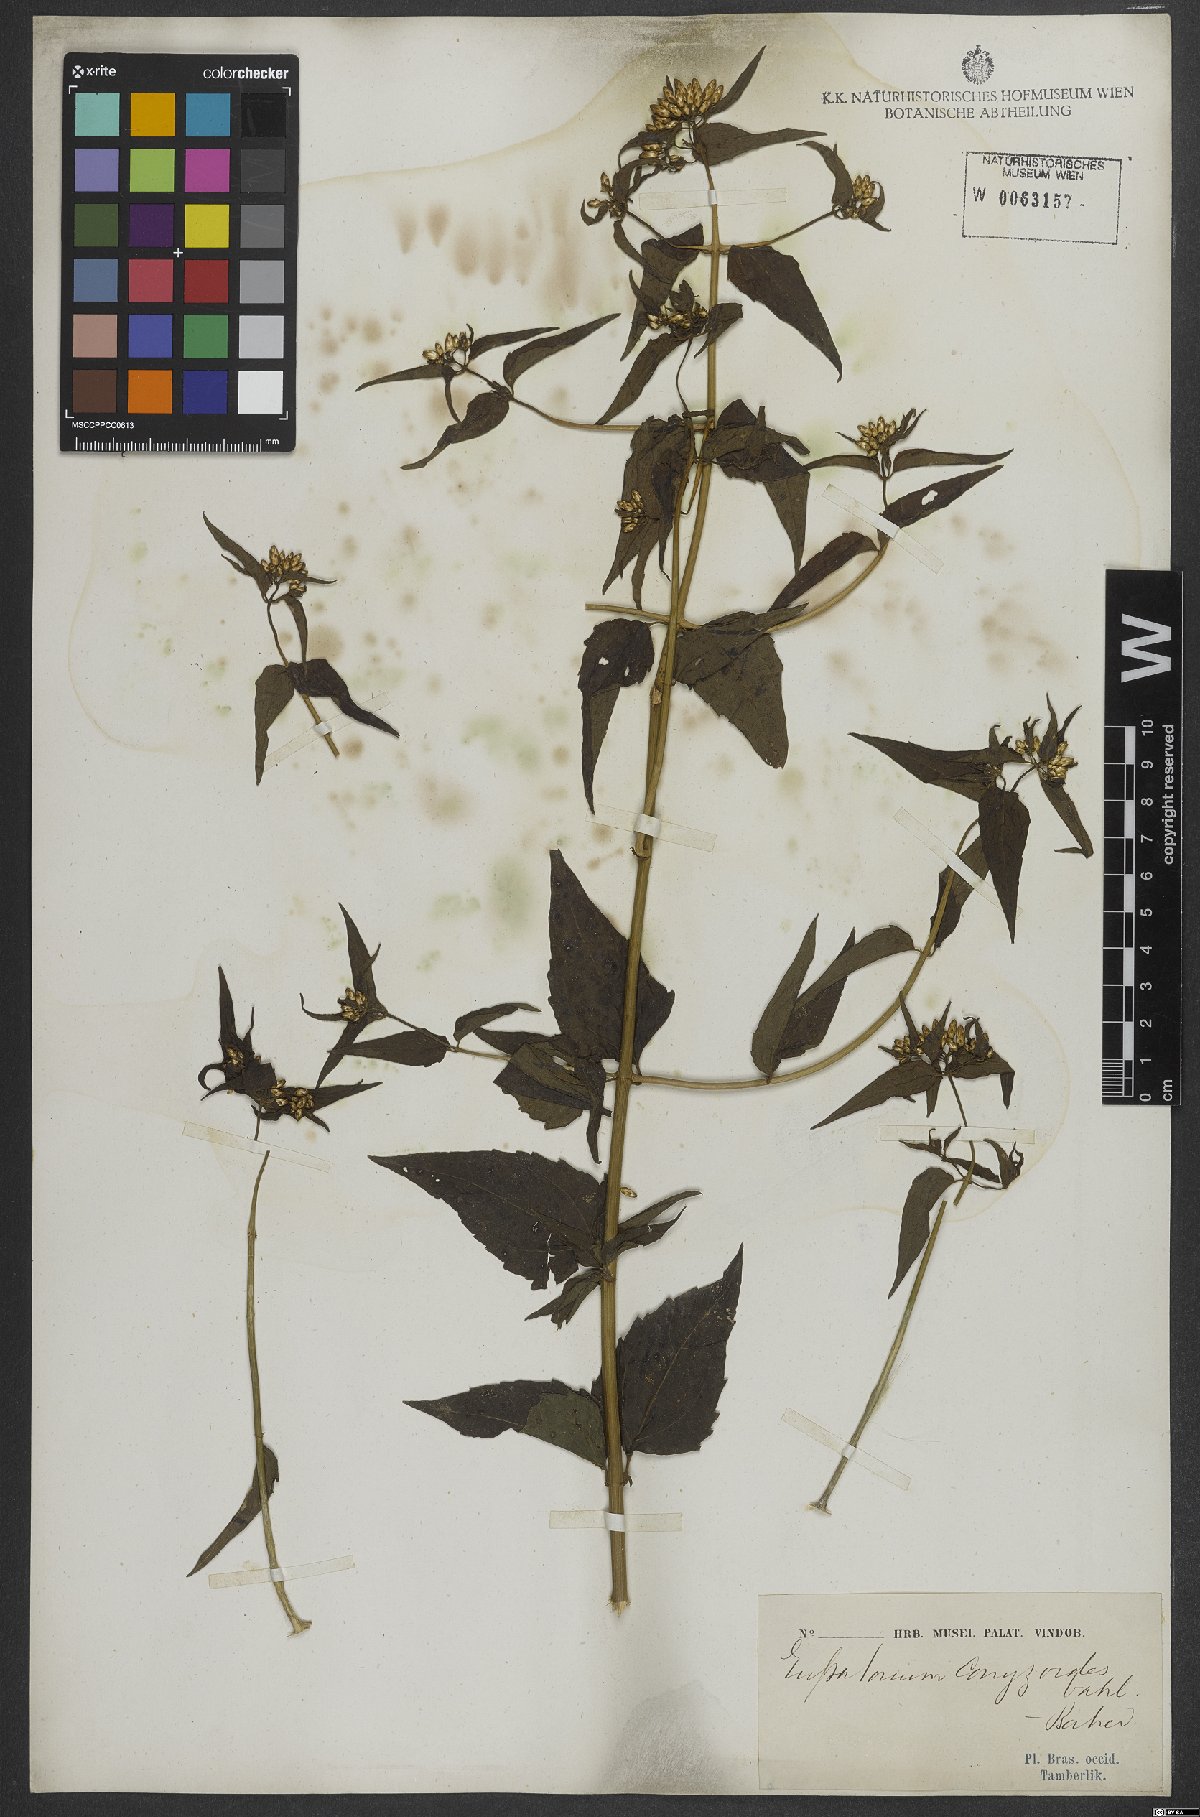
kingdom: Plantae
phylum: Tracheophyta
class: Magnoliopsida
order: Asterales
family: Asteraceae
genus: Chromolaena
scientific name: Chromolaena odorata
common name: Siamweed
